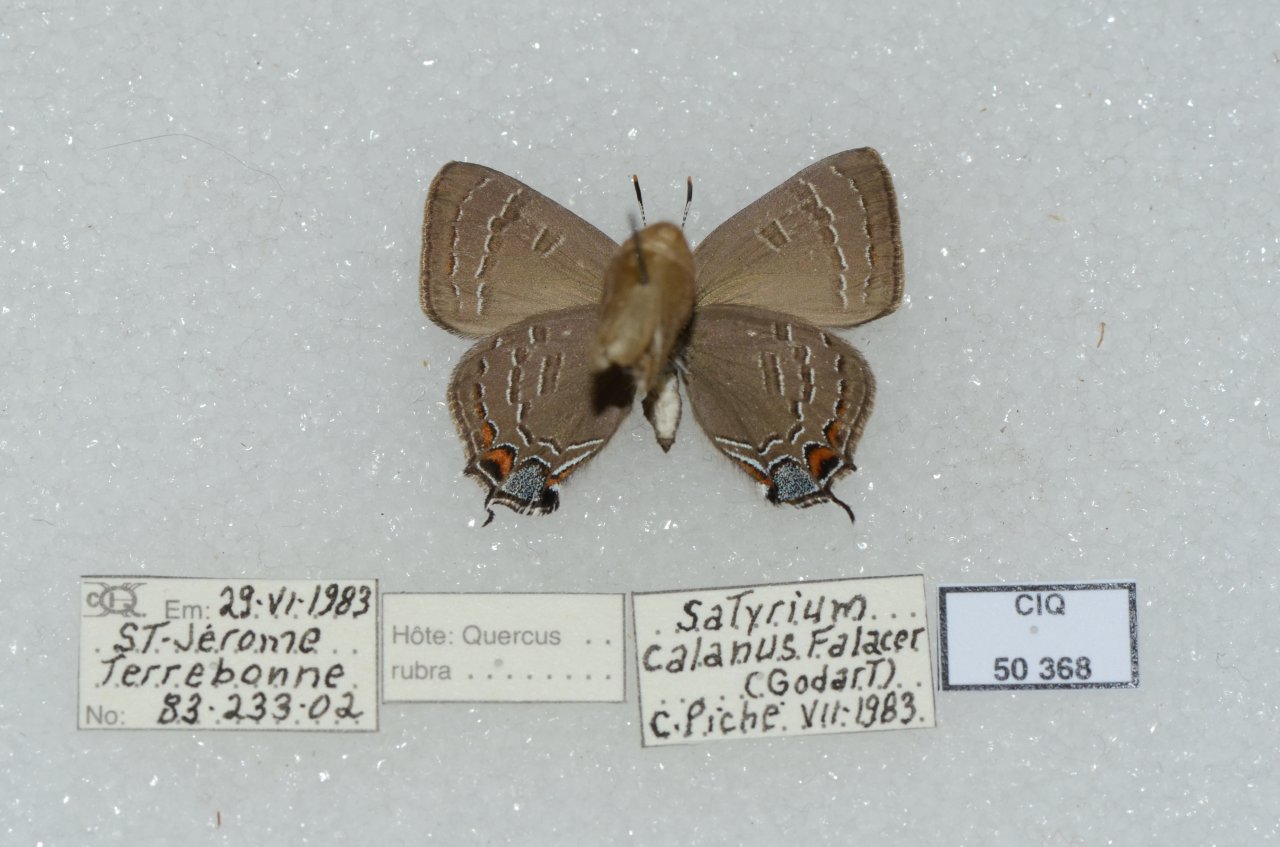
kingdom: Animalia
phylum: Arthropoda
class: Insecta
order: Lepidoptera
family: Lycaenidae
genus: Satyrium
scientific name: Satyrium calanus
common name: Banded Hairstreak
